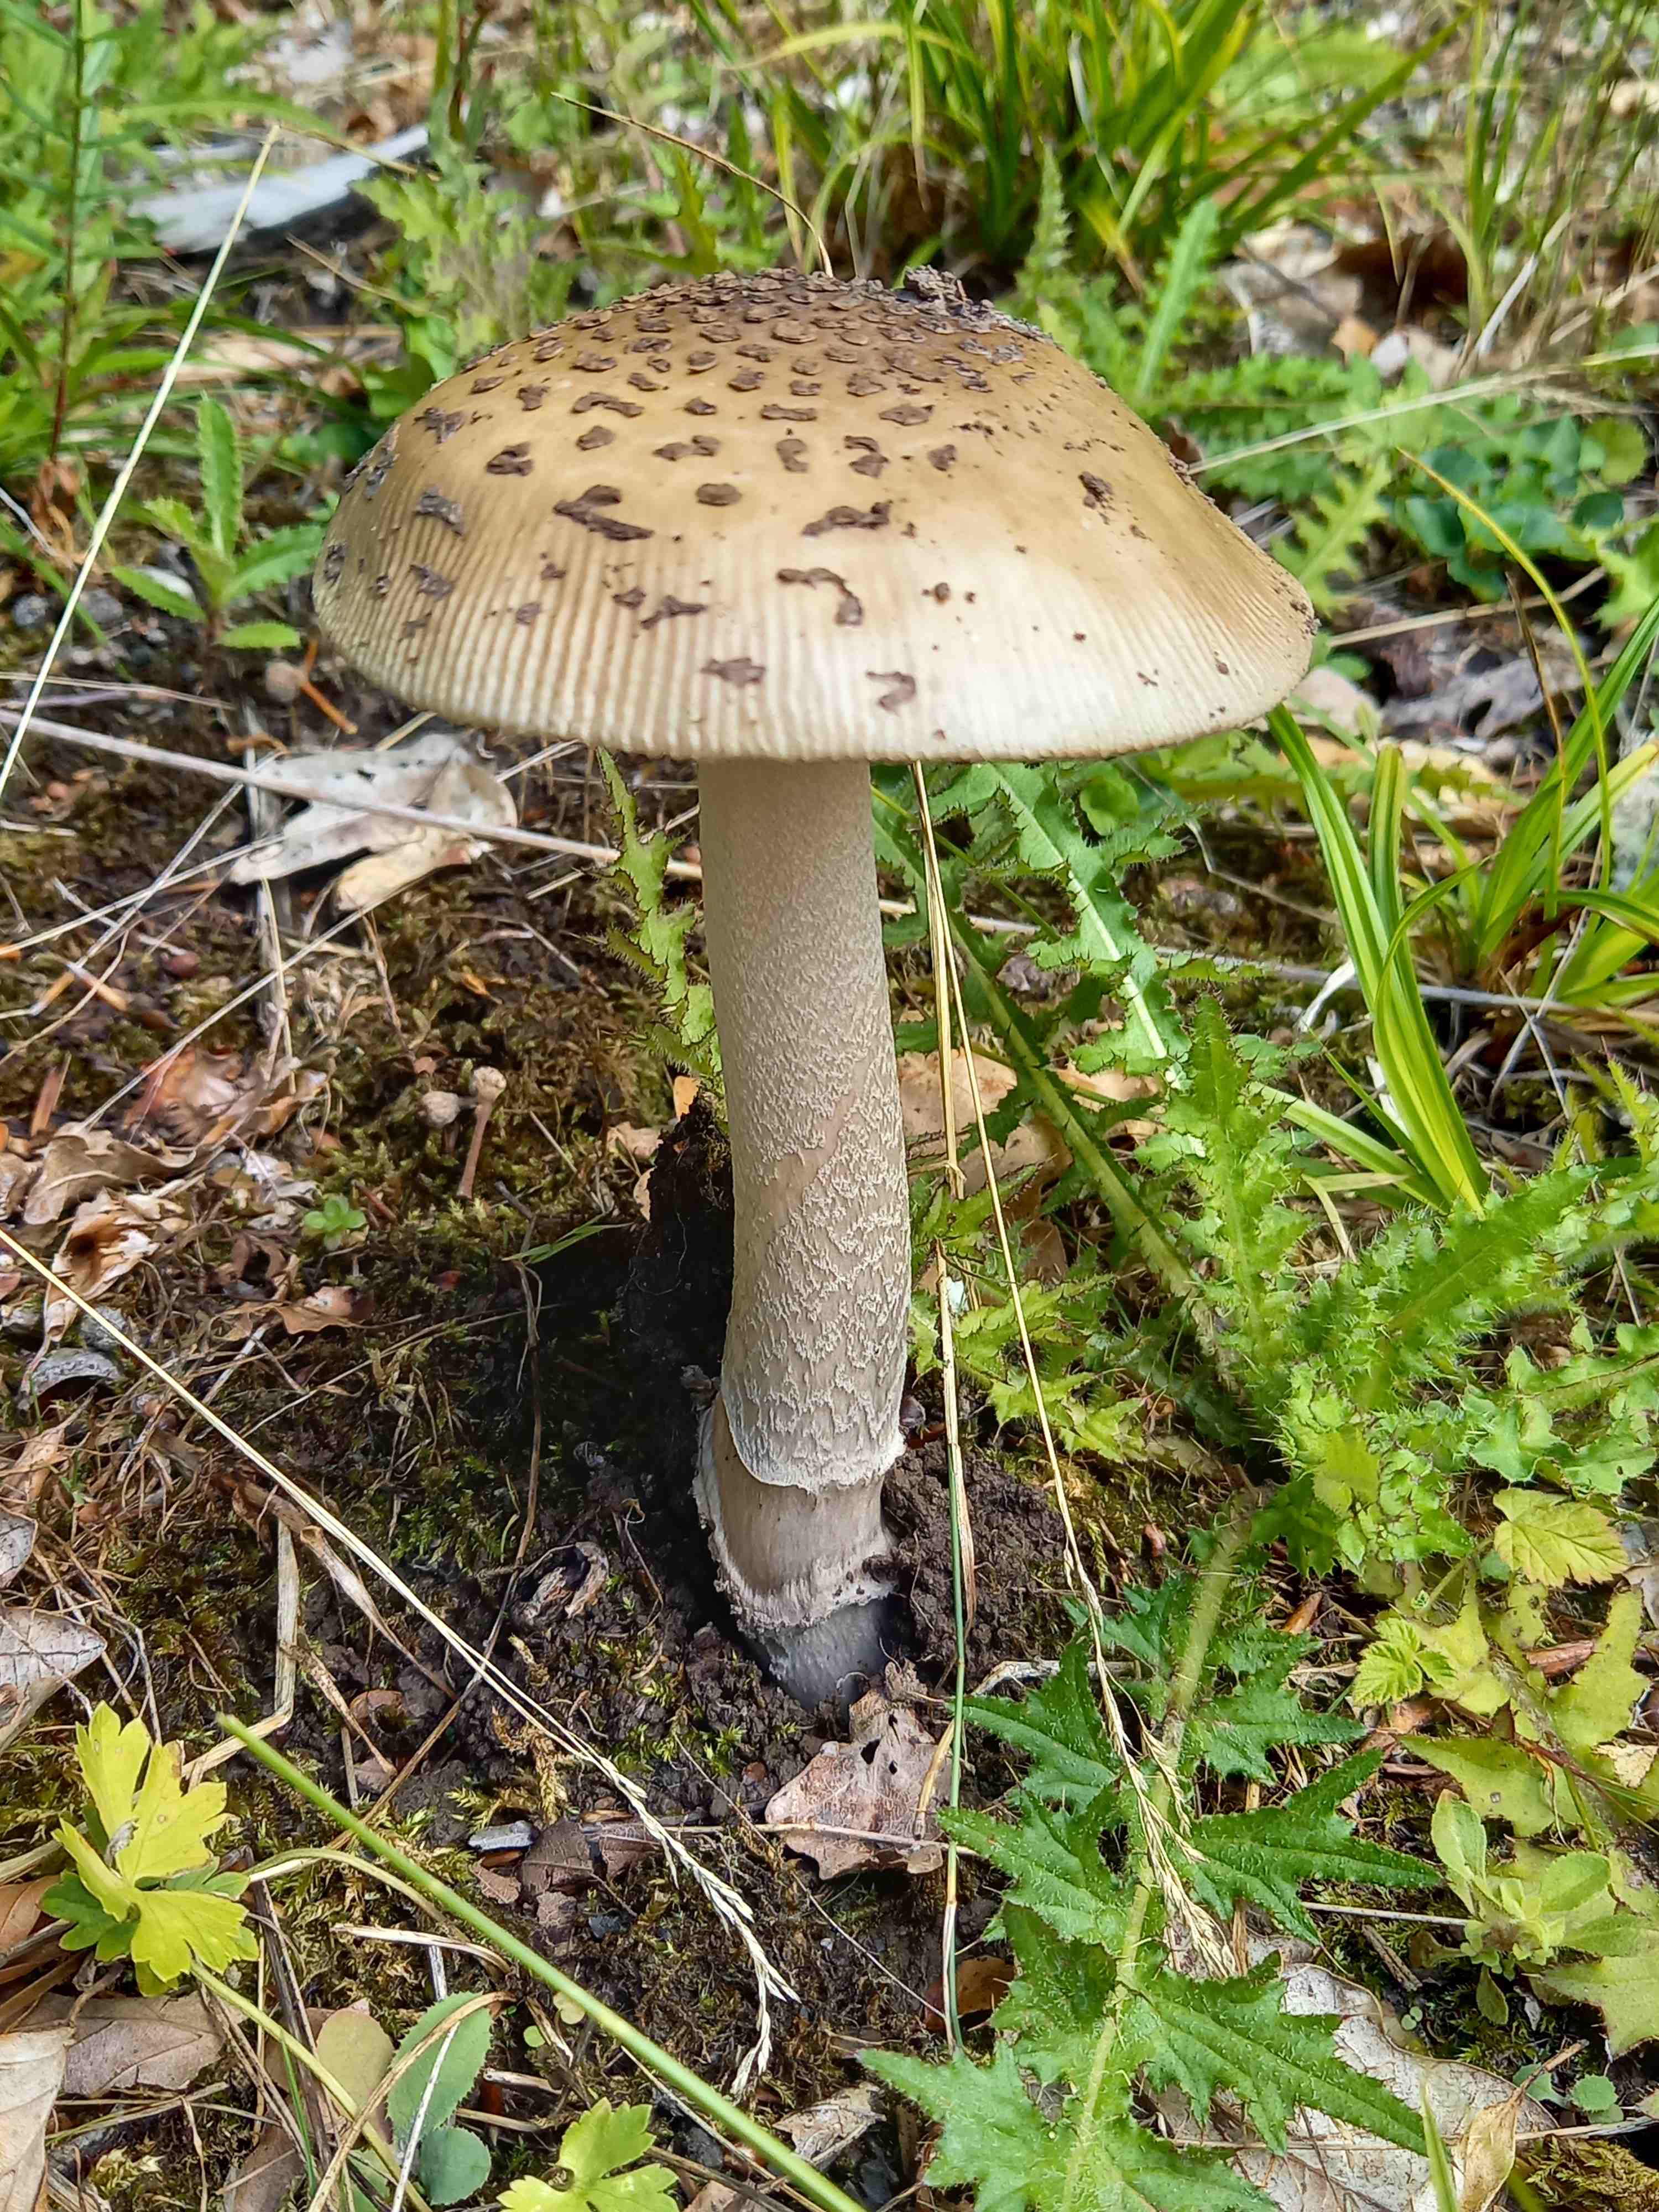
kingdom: Fungi
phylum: Basidiomycota
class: Agaricomycetes
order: Agaricales
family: Amanitaceae
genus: Amanita
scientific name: Amanita ceciliae
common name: stor kam-fluesvamp
